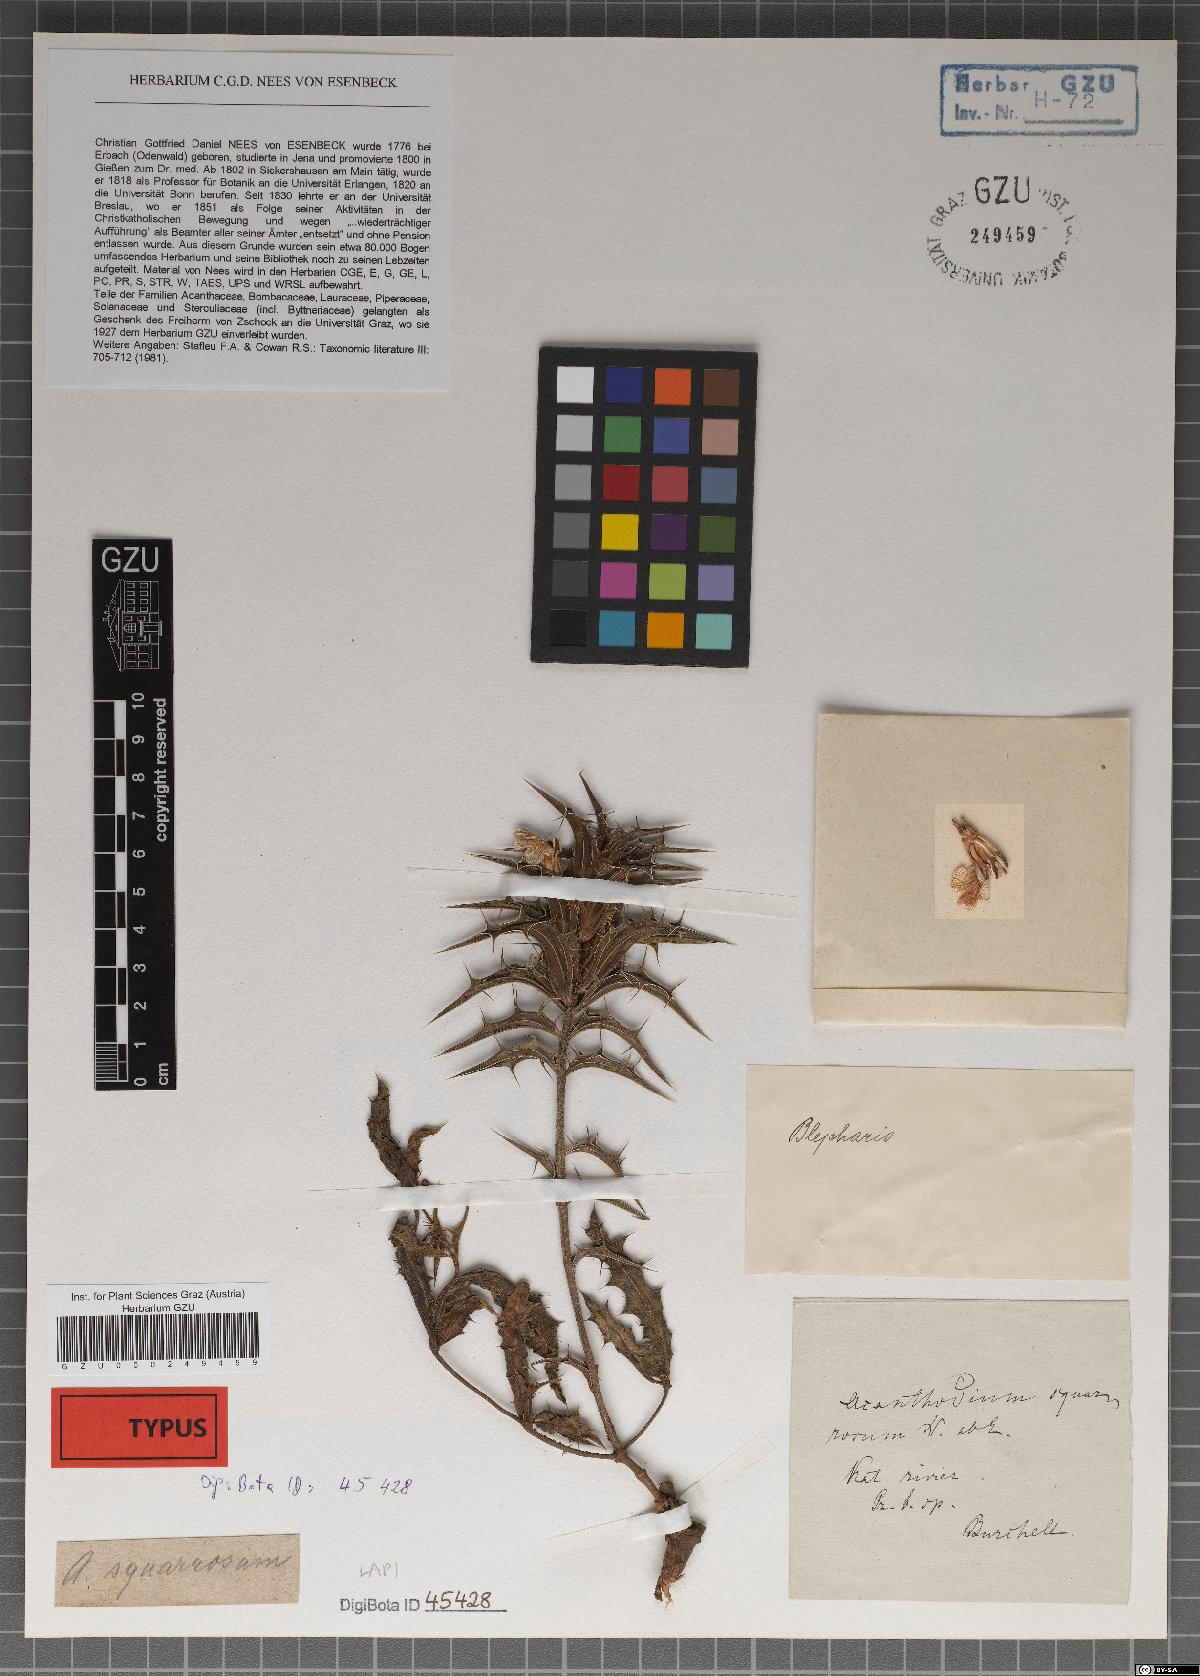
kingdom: Plantae
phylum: Tracheophyta
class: Magnoliopsida
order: Lamiales
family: Acanthaceae
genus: Blepharis
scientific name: Blepharis squarrosa
